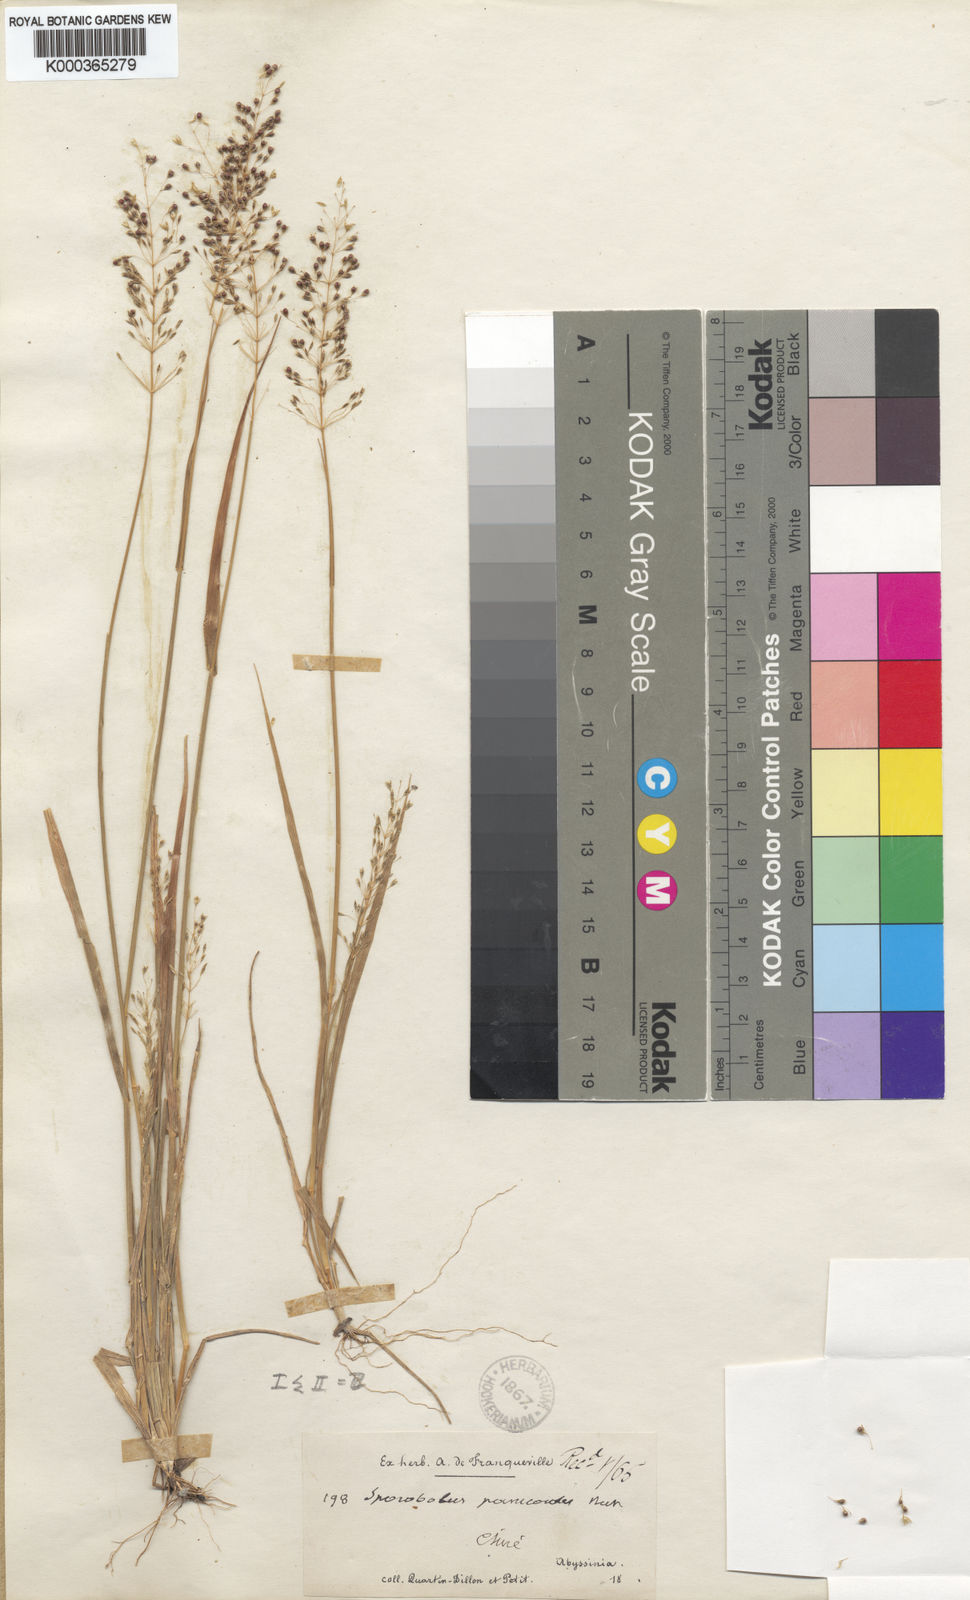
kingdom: Plantae
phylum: Tracheophyta
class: Liliopsida
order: Poales
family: Poaceae
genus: Sporobolus
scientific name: Sporobolus panicoides
